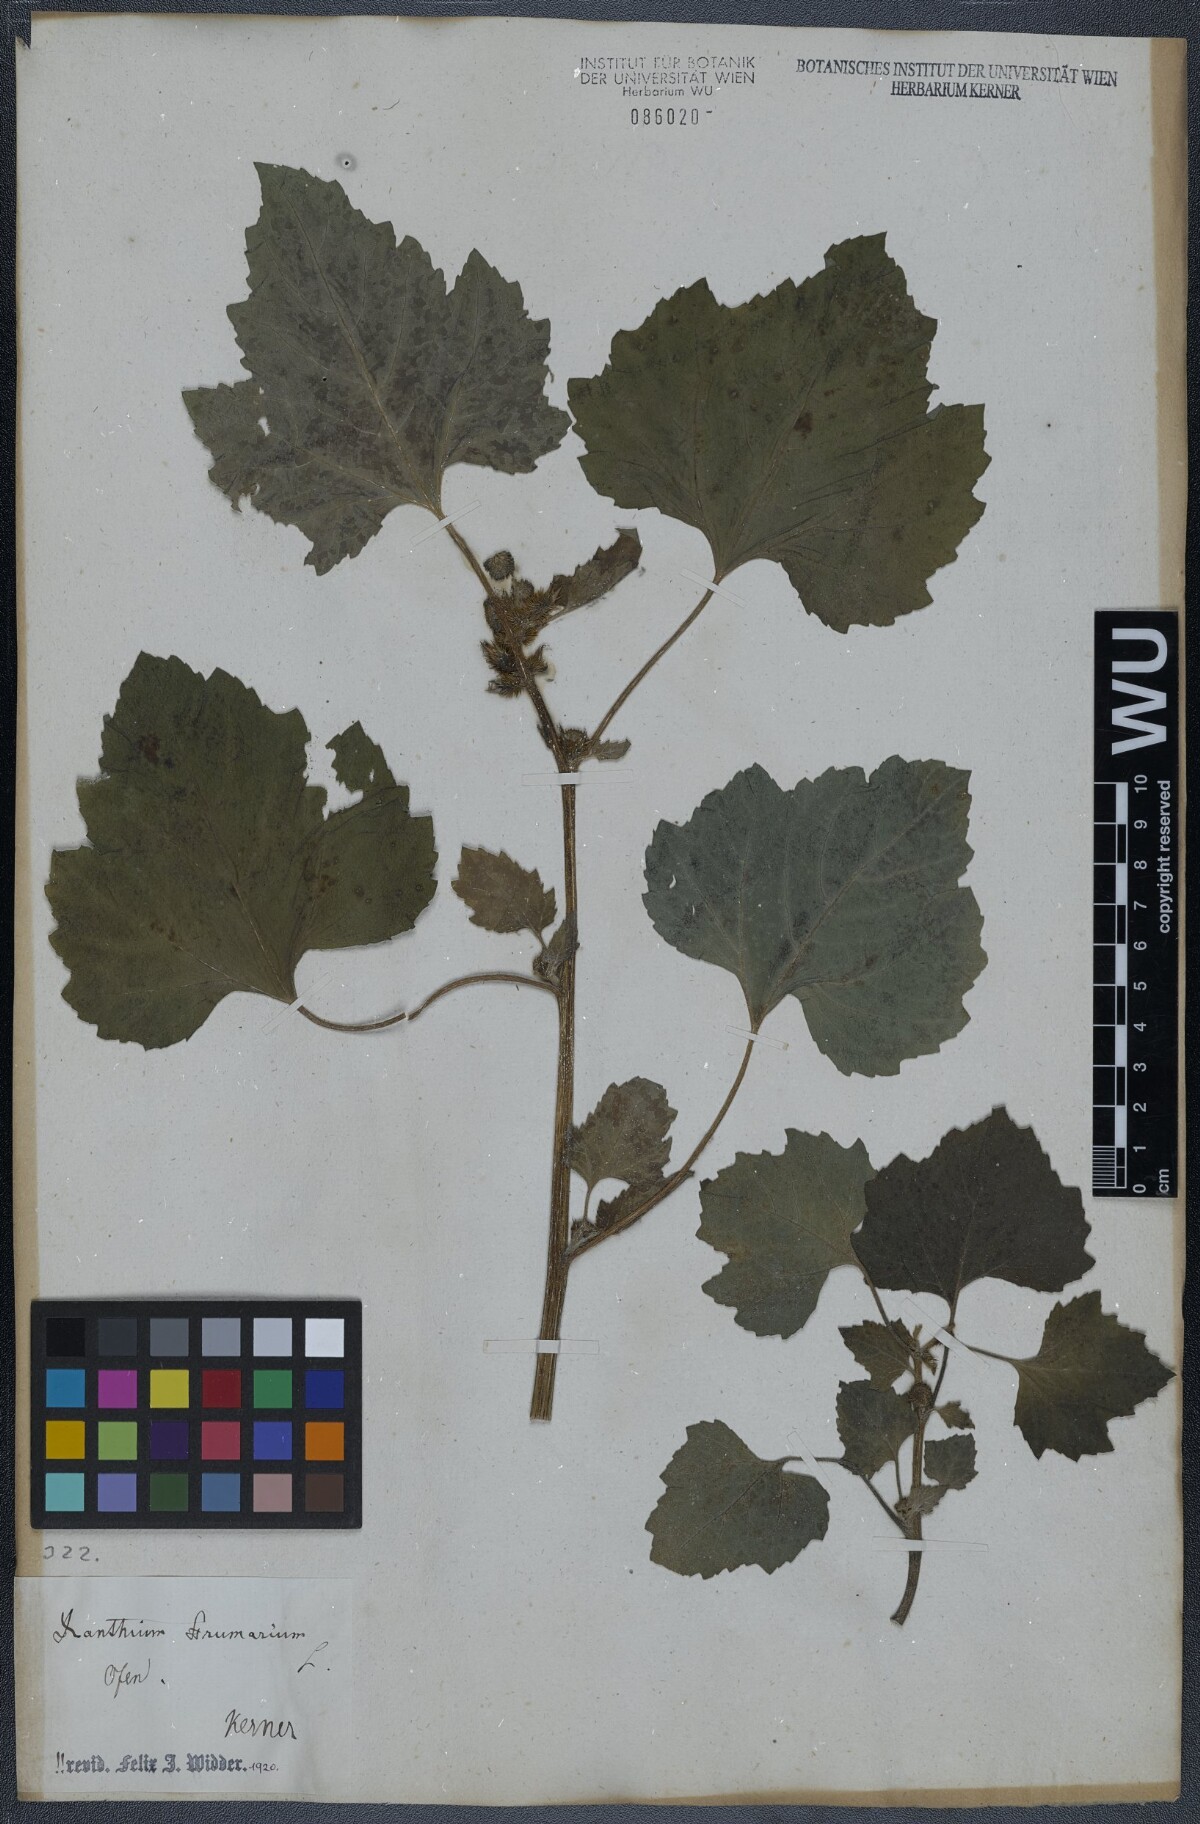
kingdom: Plantae
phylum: Tracheophyta
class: Magnoliopsida
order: Asterales
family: Asteraceae
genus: Xanthium
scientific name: Xanthium strumarium
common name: Rough cocklebur
